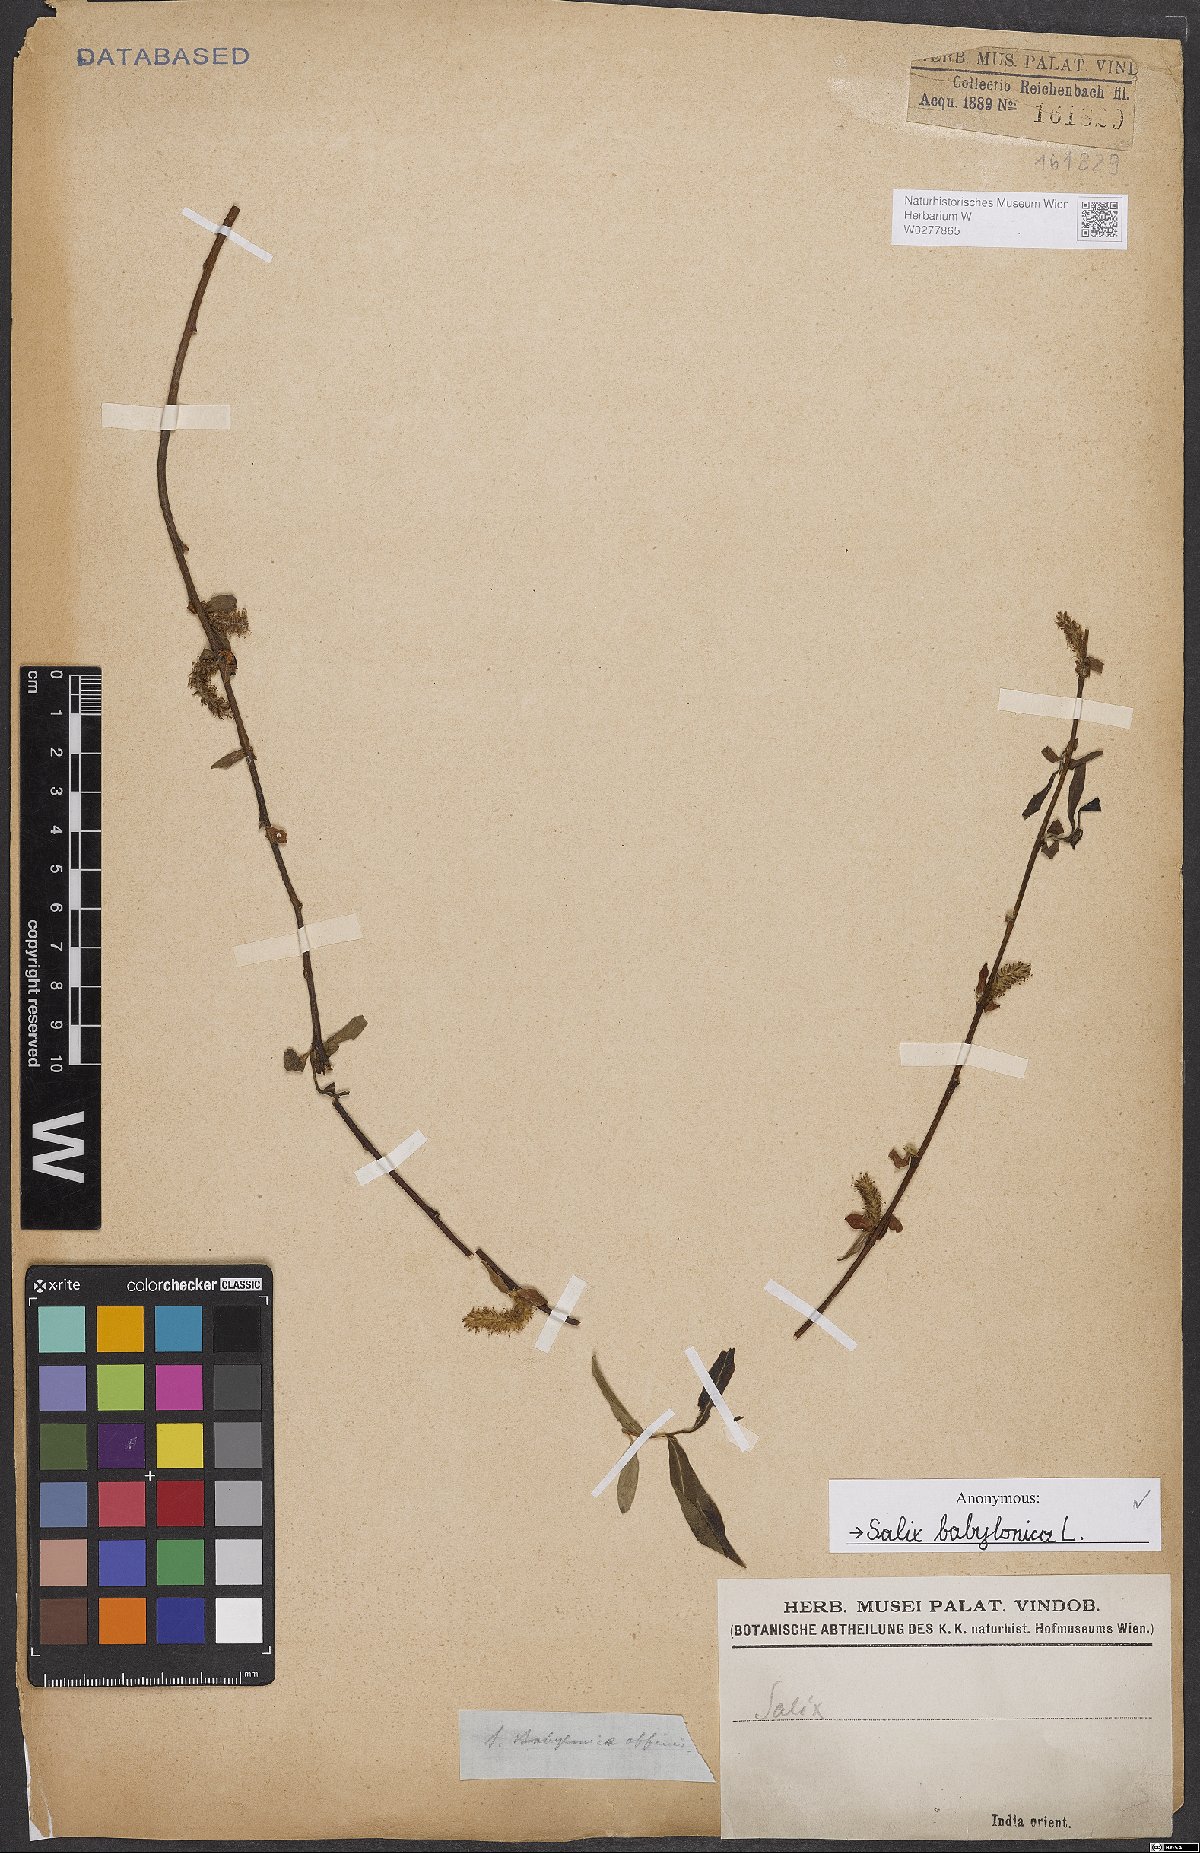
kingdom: Plantae
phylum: Tracheophyta
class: Magnoliopsida
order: Malpighiales
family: Salicaceae
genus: Salix
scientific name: Salix babylonica
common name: Weeping willow
